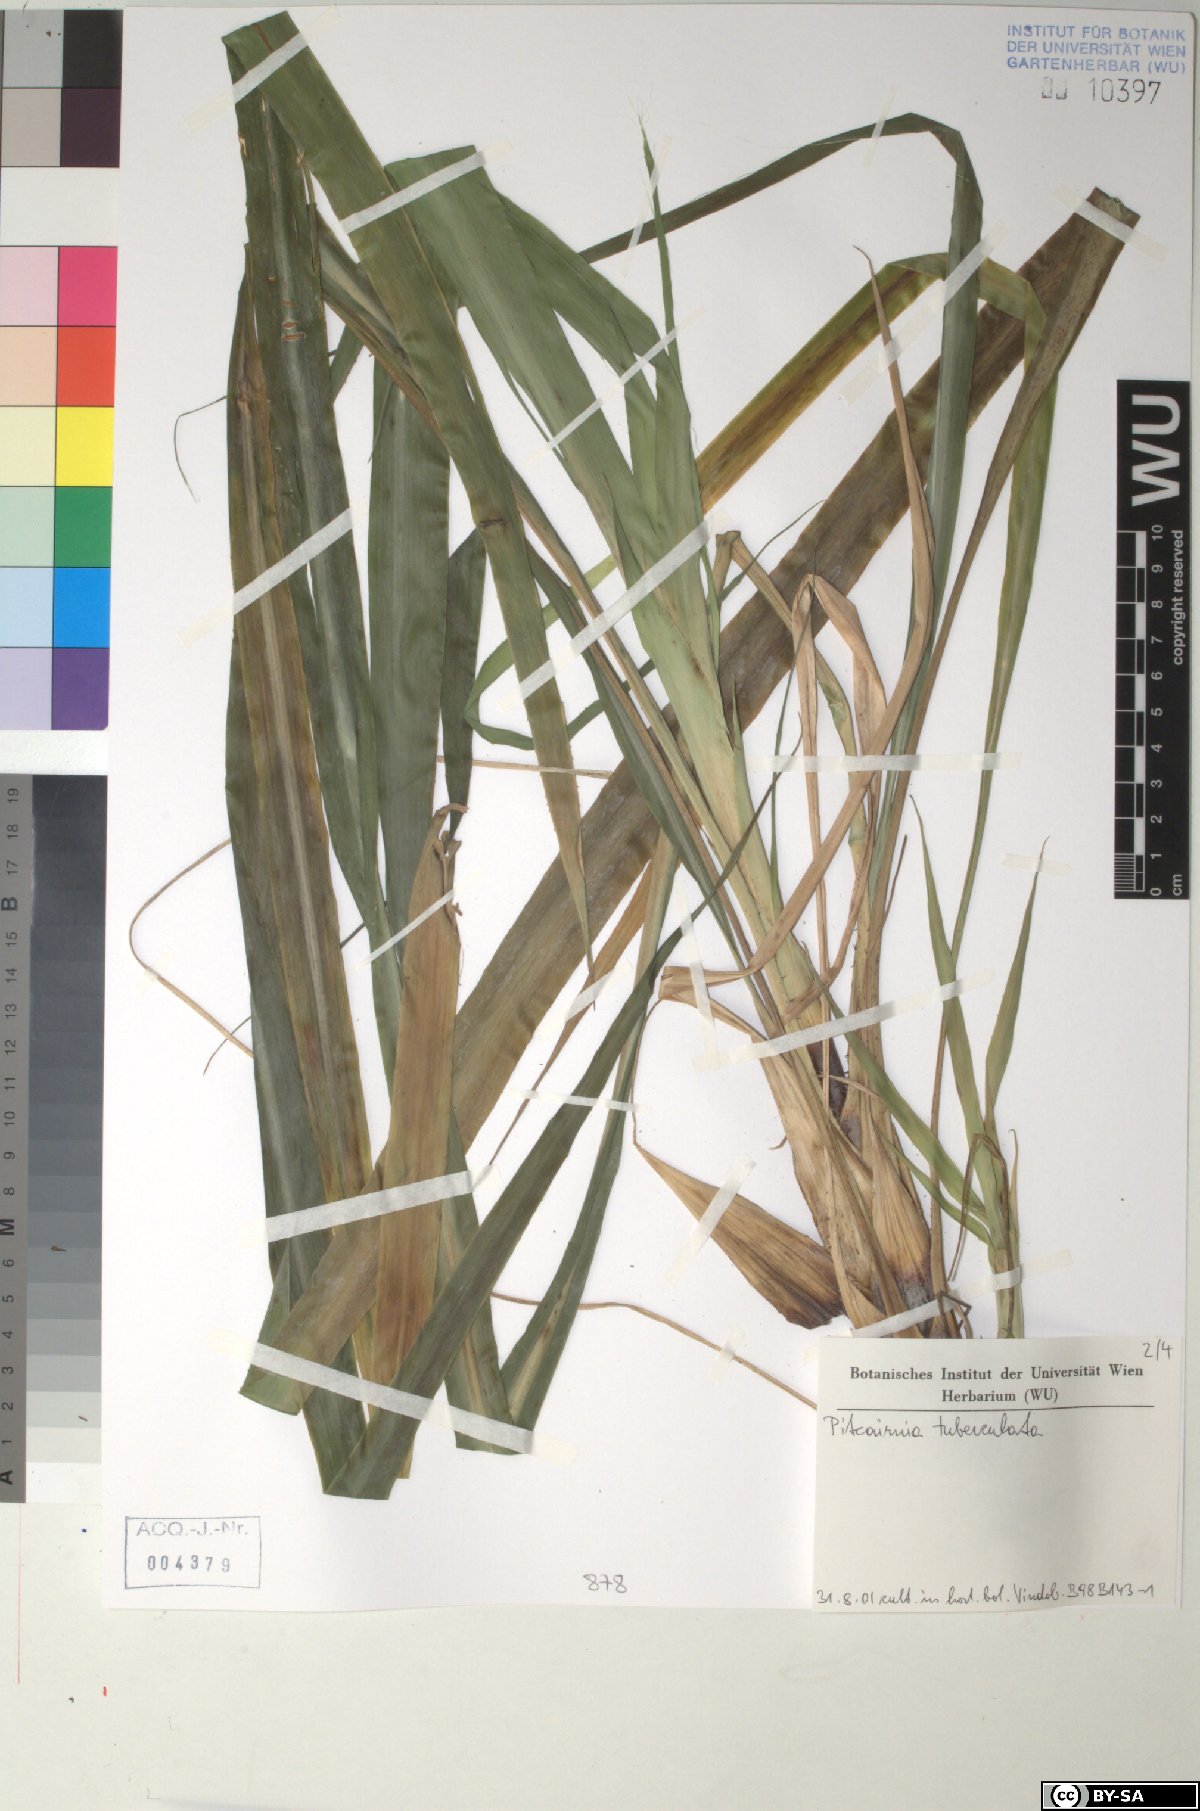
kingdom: Plantae
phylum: Tracheophyta
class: Liliopsida
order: Poales
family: Bromeliaceae
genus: Pitcairnia
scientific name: Pitcairnia tuberculata
